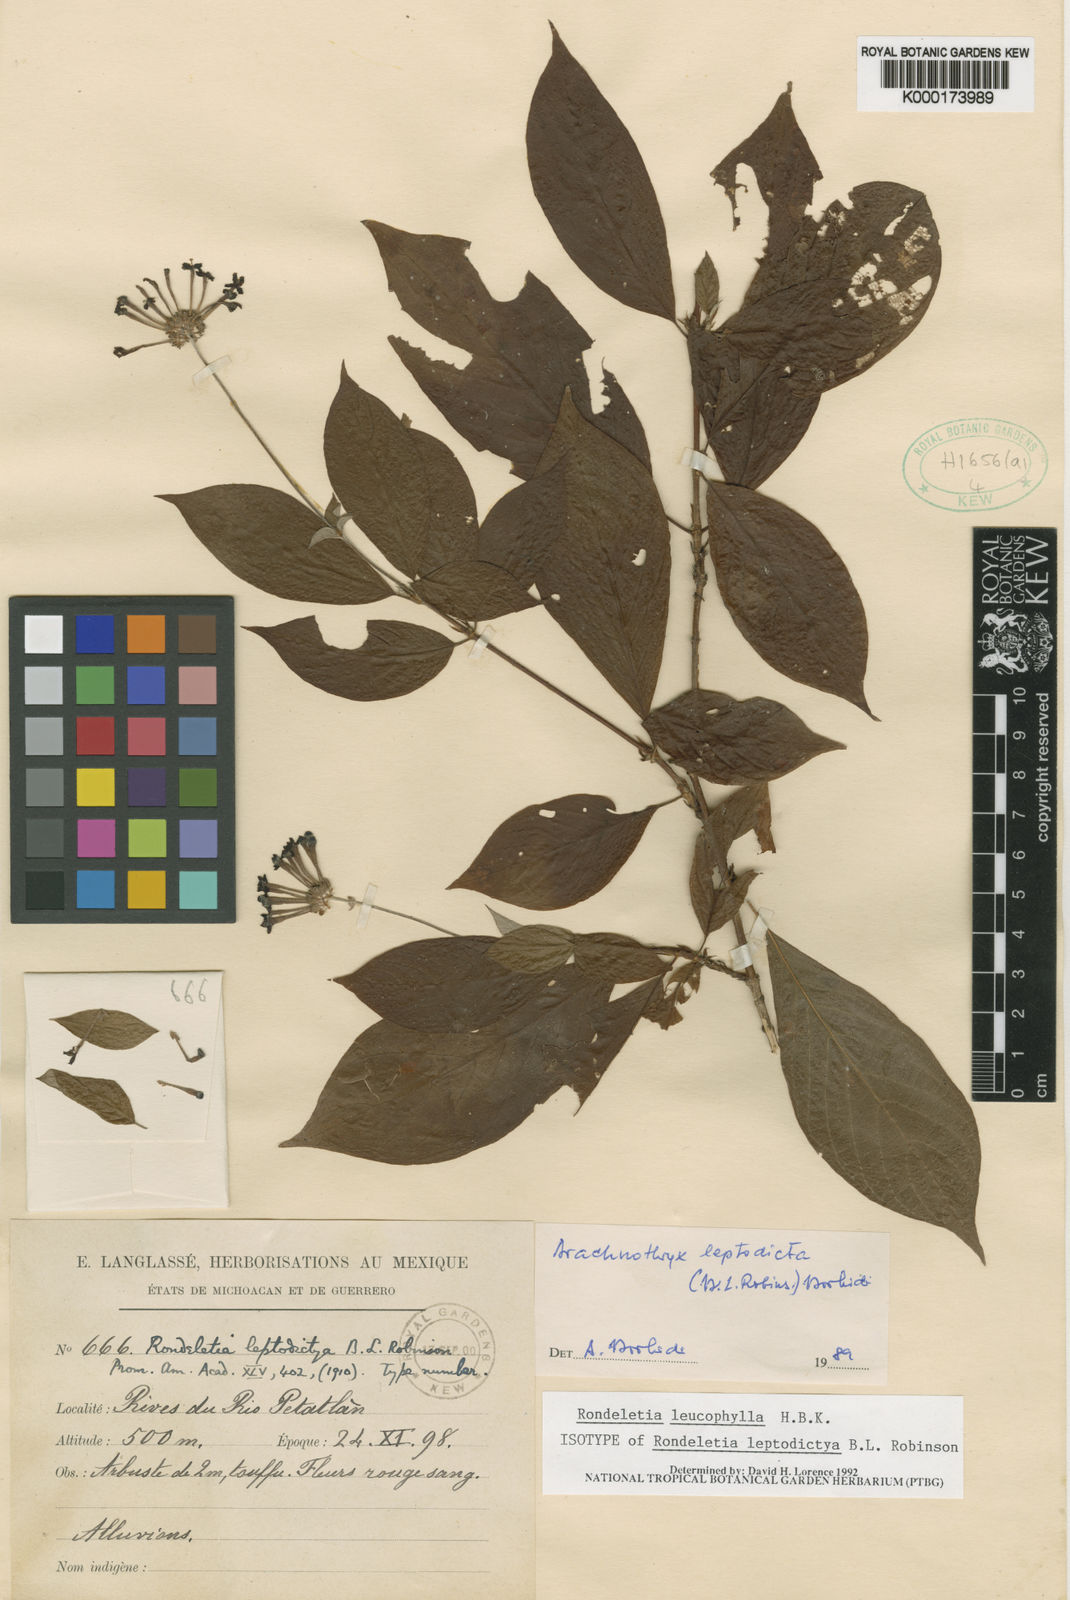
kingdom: Plantae
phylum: Tracheophyta
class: Magnoliopsida
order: Gentianales
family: Rubiaceae
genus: Arachnothryx
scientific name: Arachnothryx leucophylla
